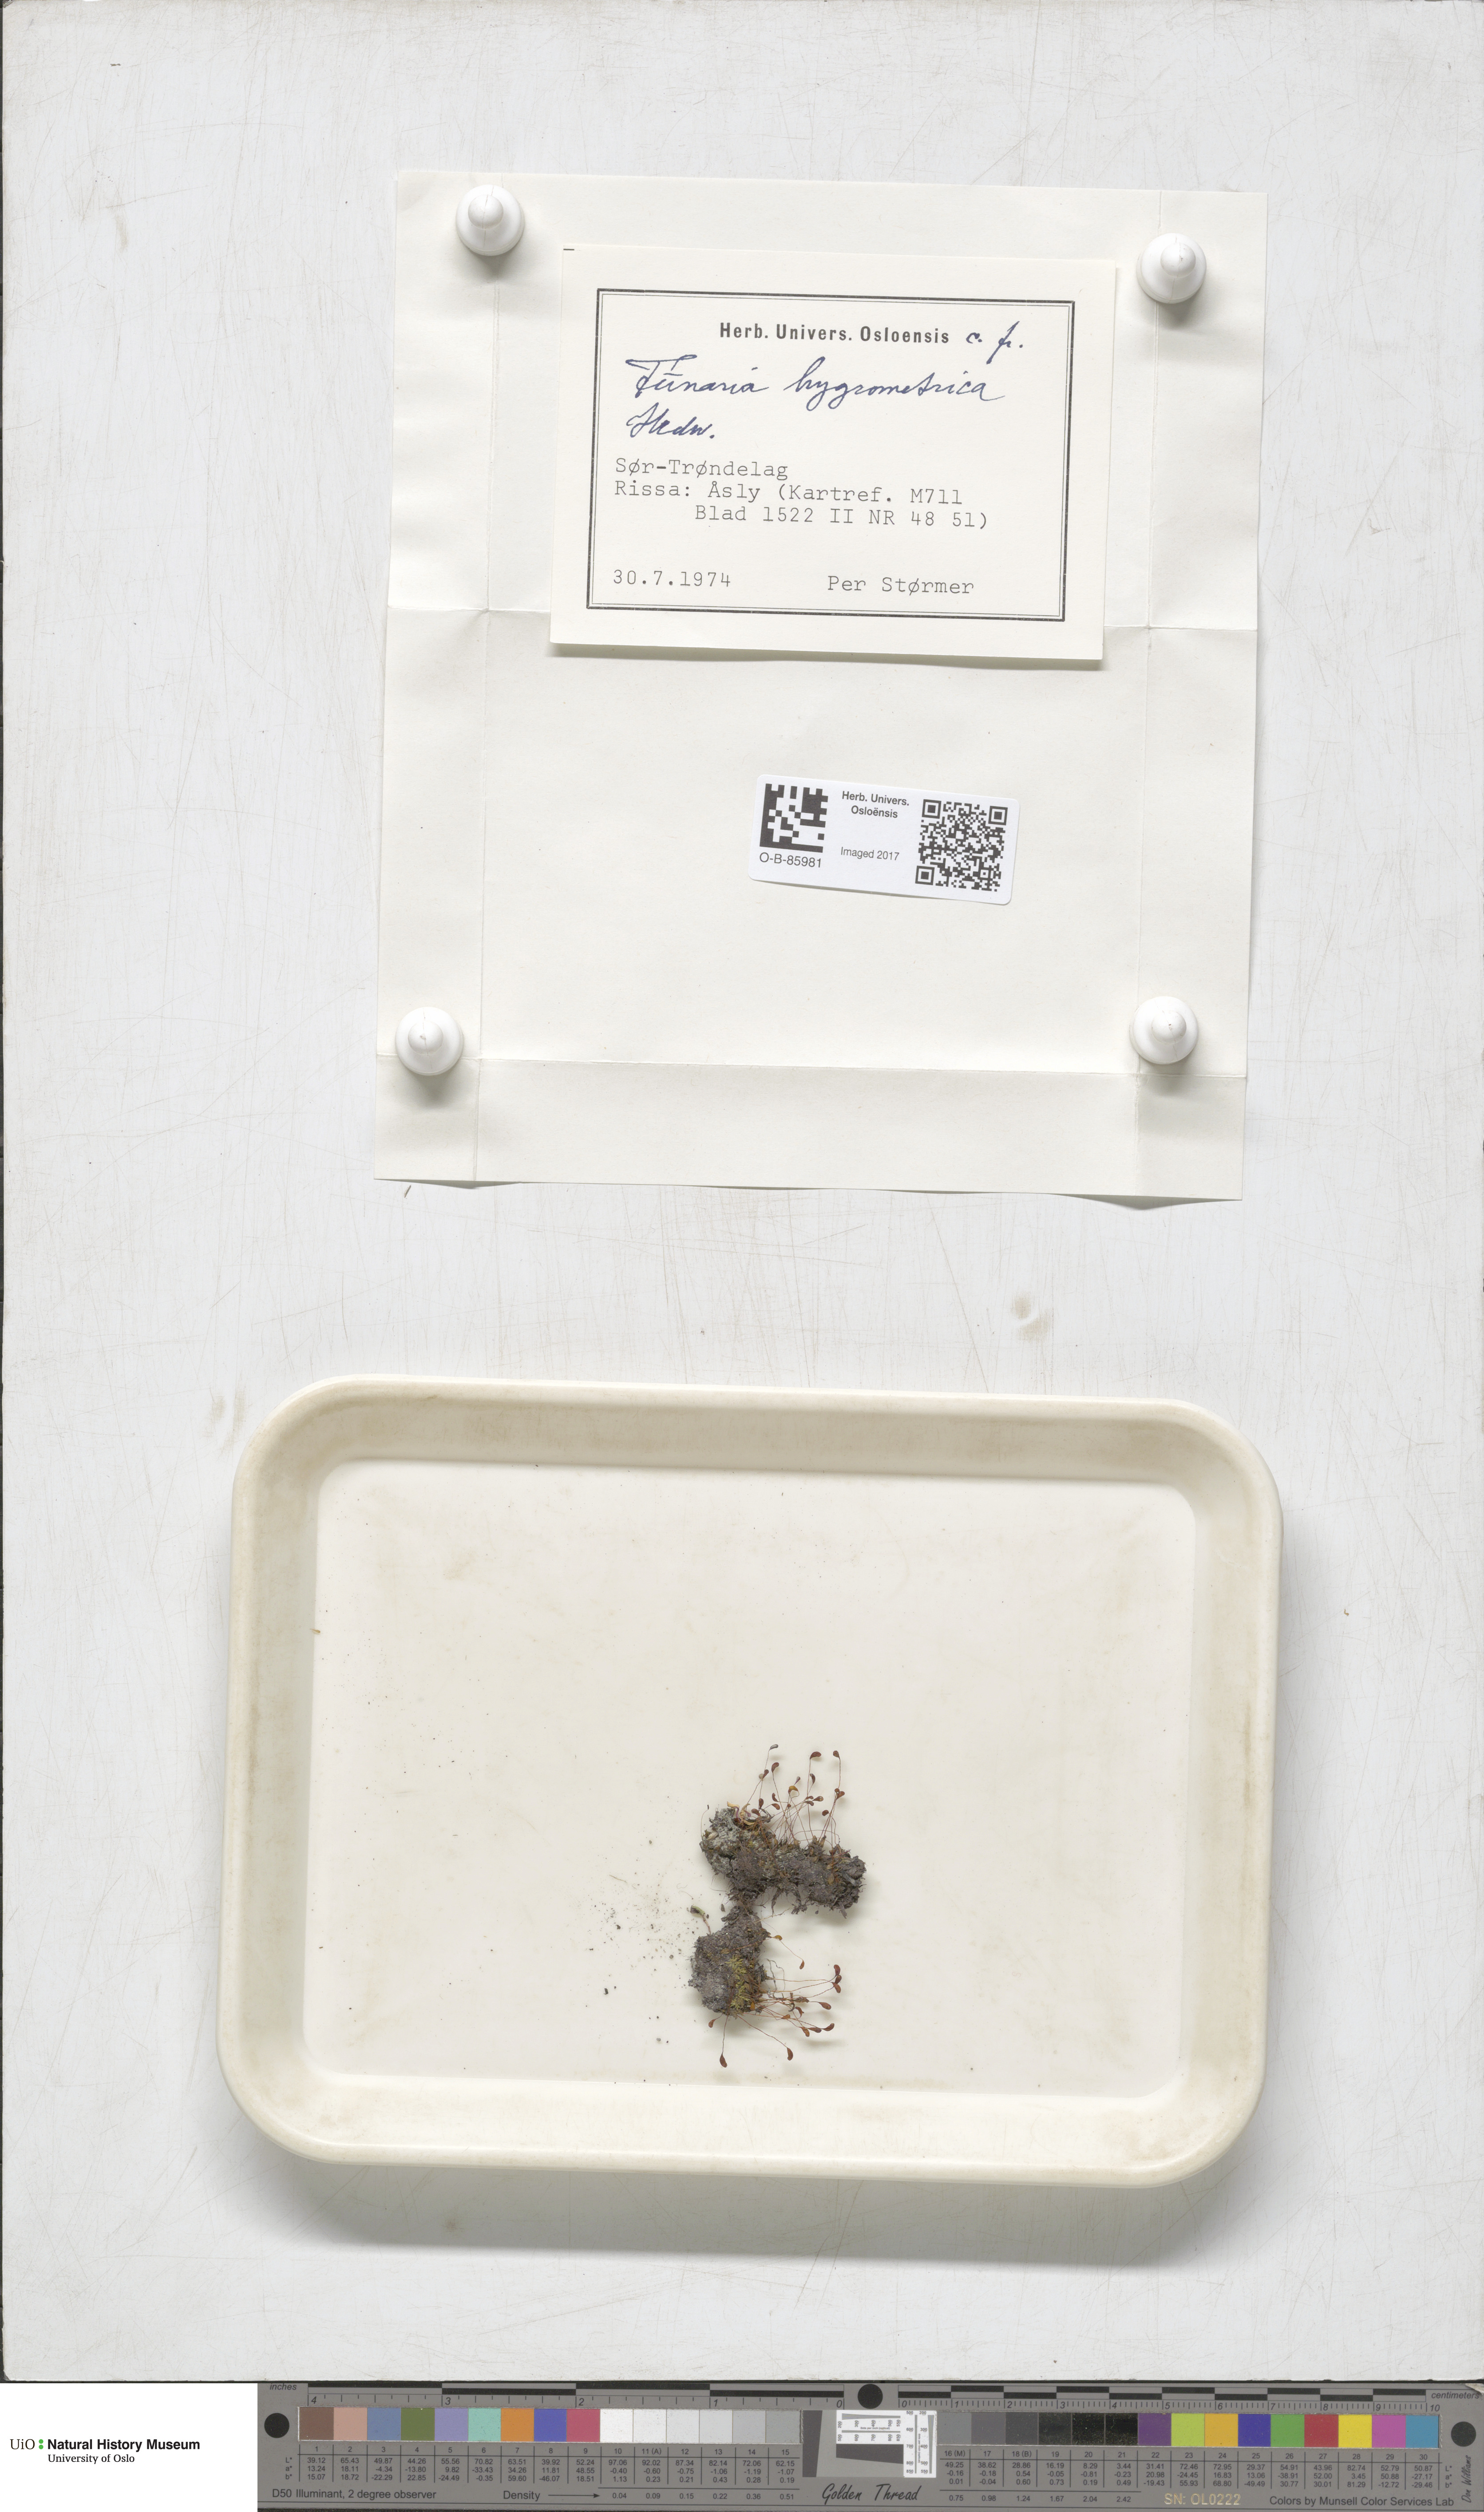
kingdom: Plantae
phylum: Bryophyta
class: Bryopsida
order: Funariales
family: Funariaceae
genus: Funaria
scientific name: Funaria hygrometrica
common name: Common cord moss
